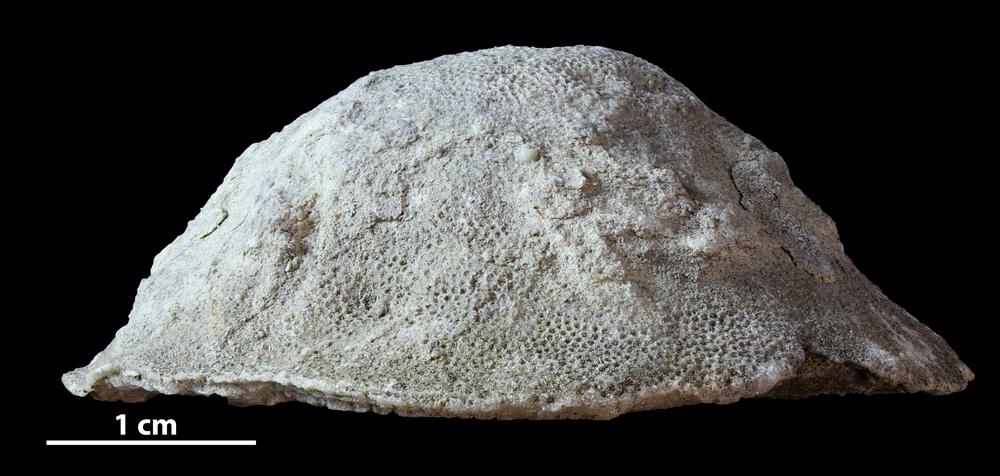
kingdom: Animalia
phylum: Bryozoa
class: Stenolaemata
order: Trepostomatida
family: Diplotrypidae
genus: Diplotrypa
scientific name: Diplotrypa
